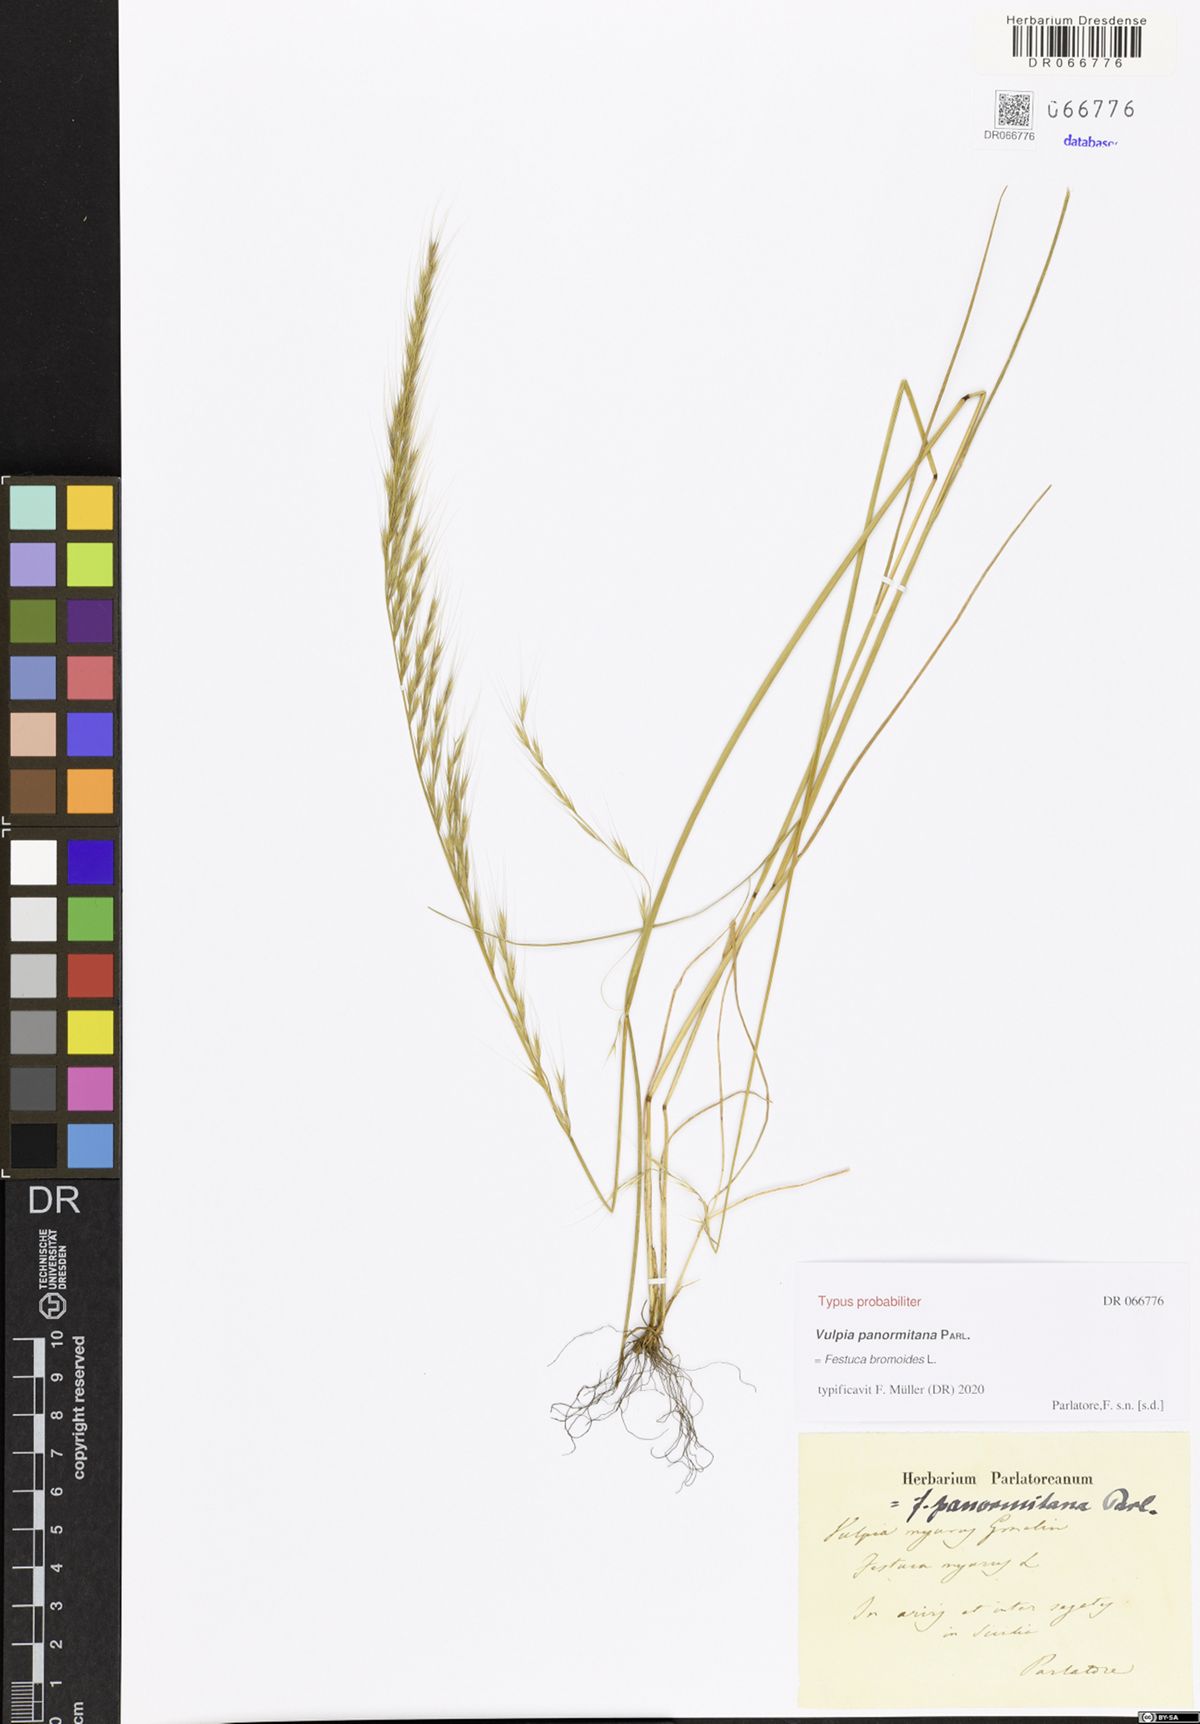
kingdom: Plantae
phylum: Tracheophyta
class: Liliopsida
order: Poales
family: Poaceae
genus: Festuca
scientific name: Festuca bromoides
